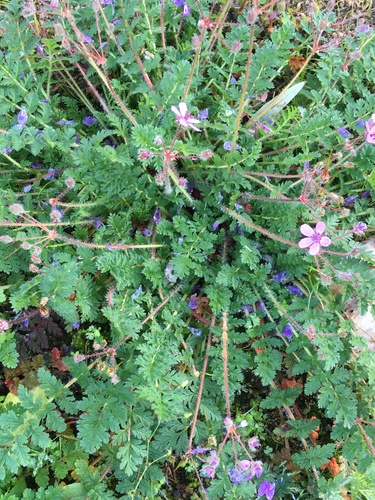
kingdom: Plantae
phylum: Tracheophyta
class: Magnoliopsida
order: Geraniales
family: Geraniaceae
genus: Erodium
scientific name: Erodium cicutarium
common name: Common stork's-bill
